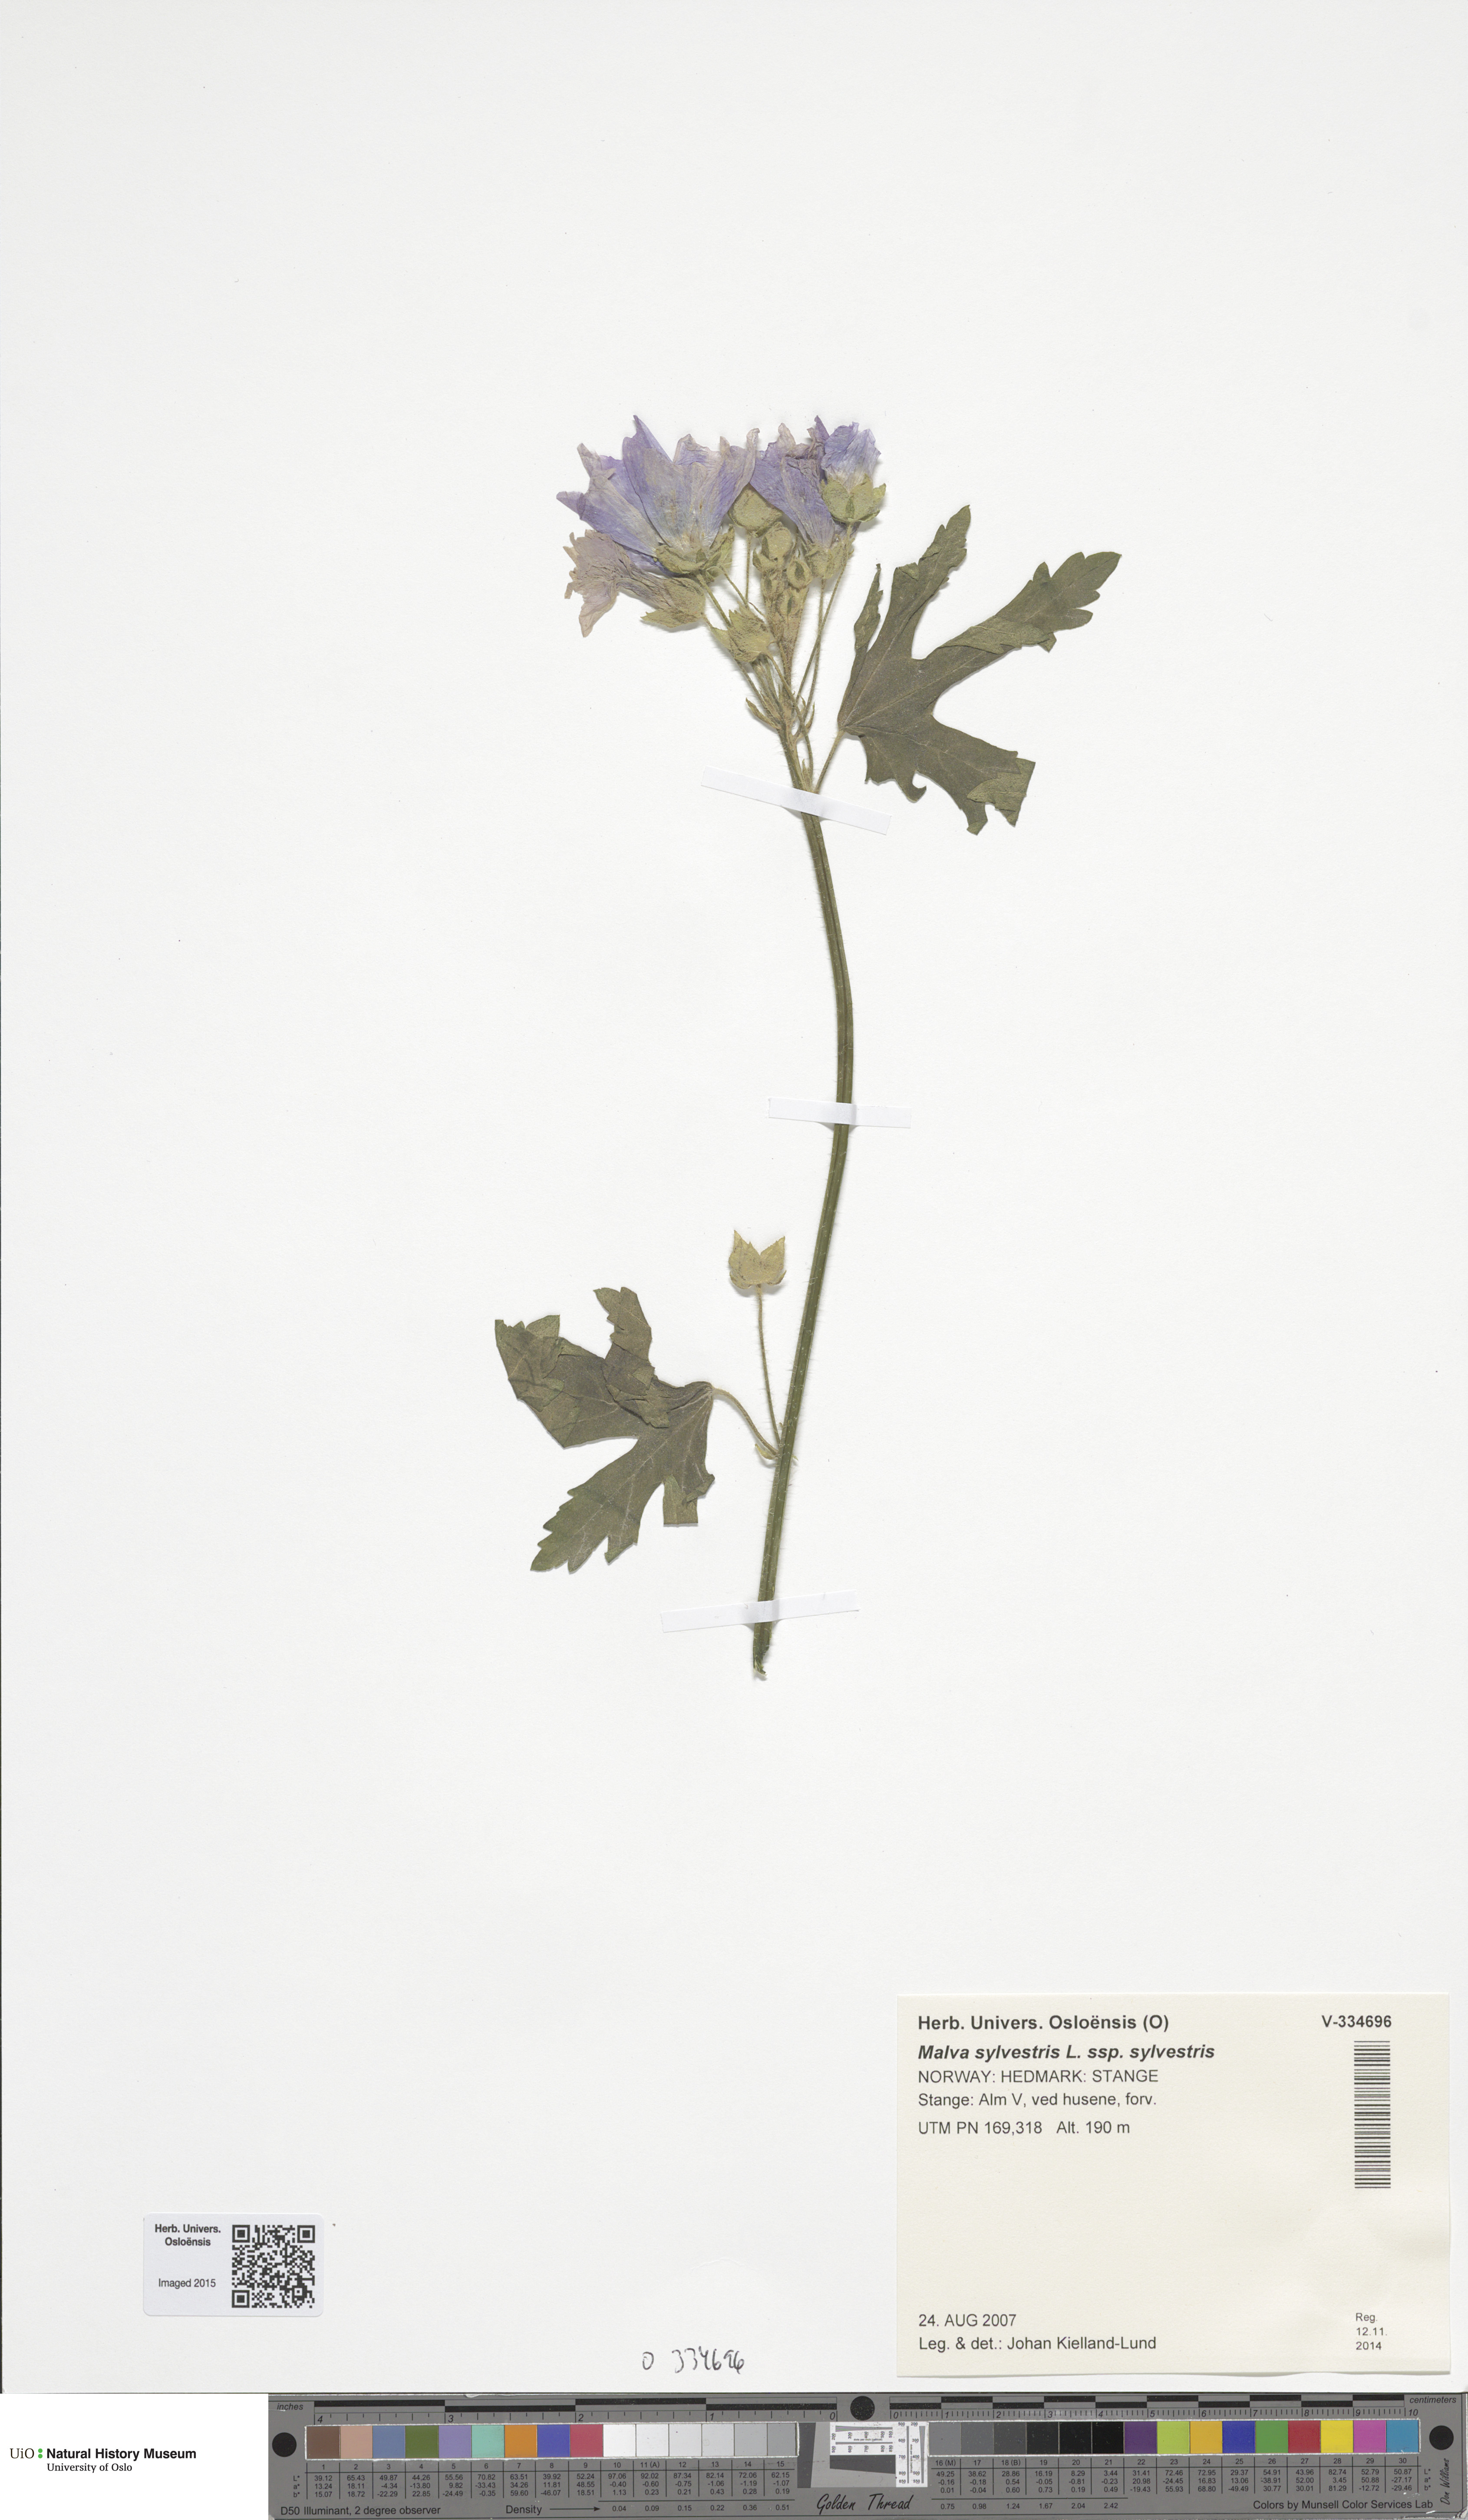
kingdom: Plantae
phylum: Tracheophyta
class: Magnoliopsida
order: Malvales
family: Malvaceae
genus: Malva
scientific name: Malva sylvestris
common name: Common mallow
